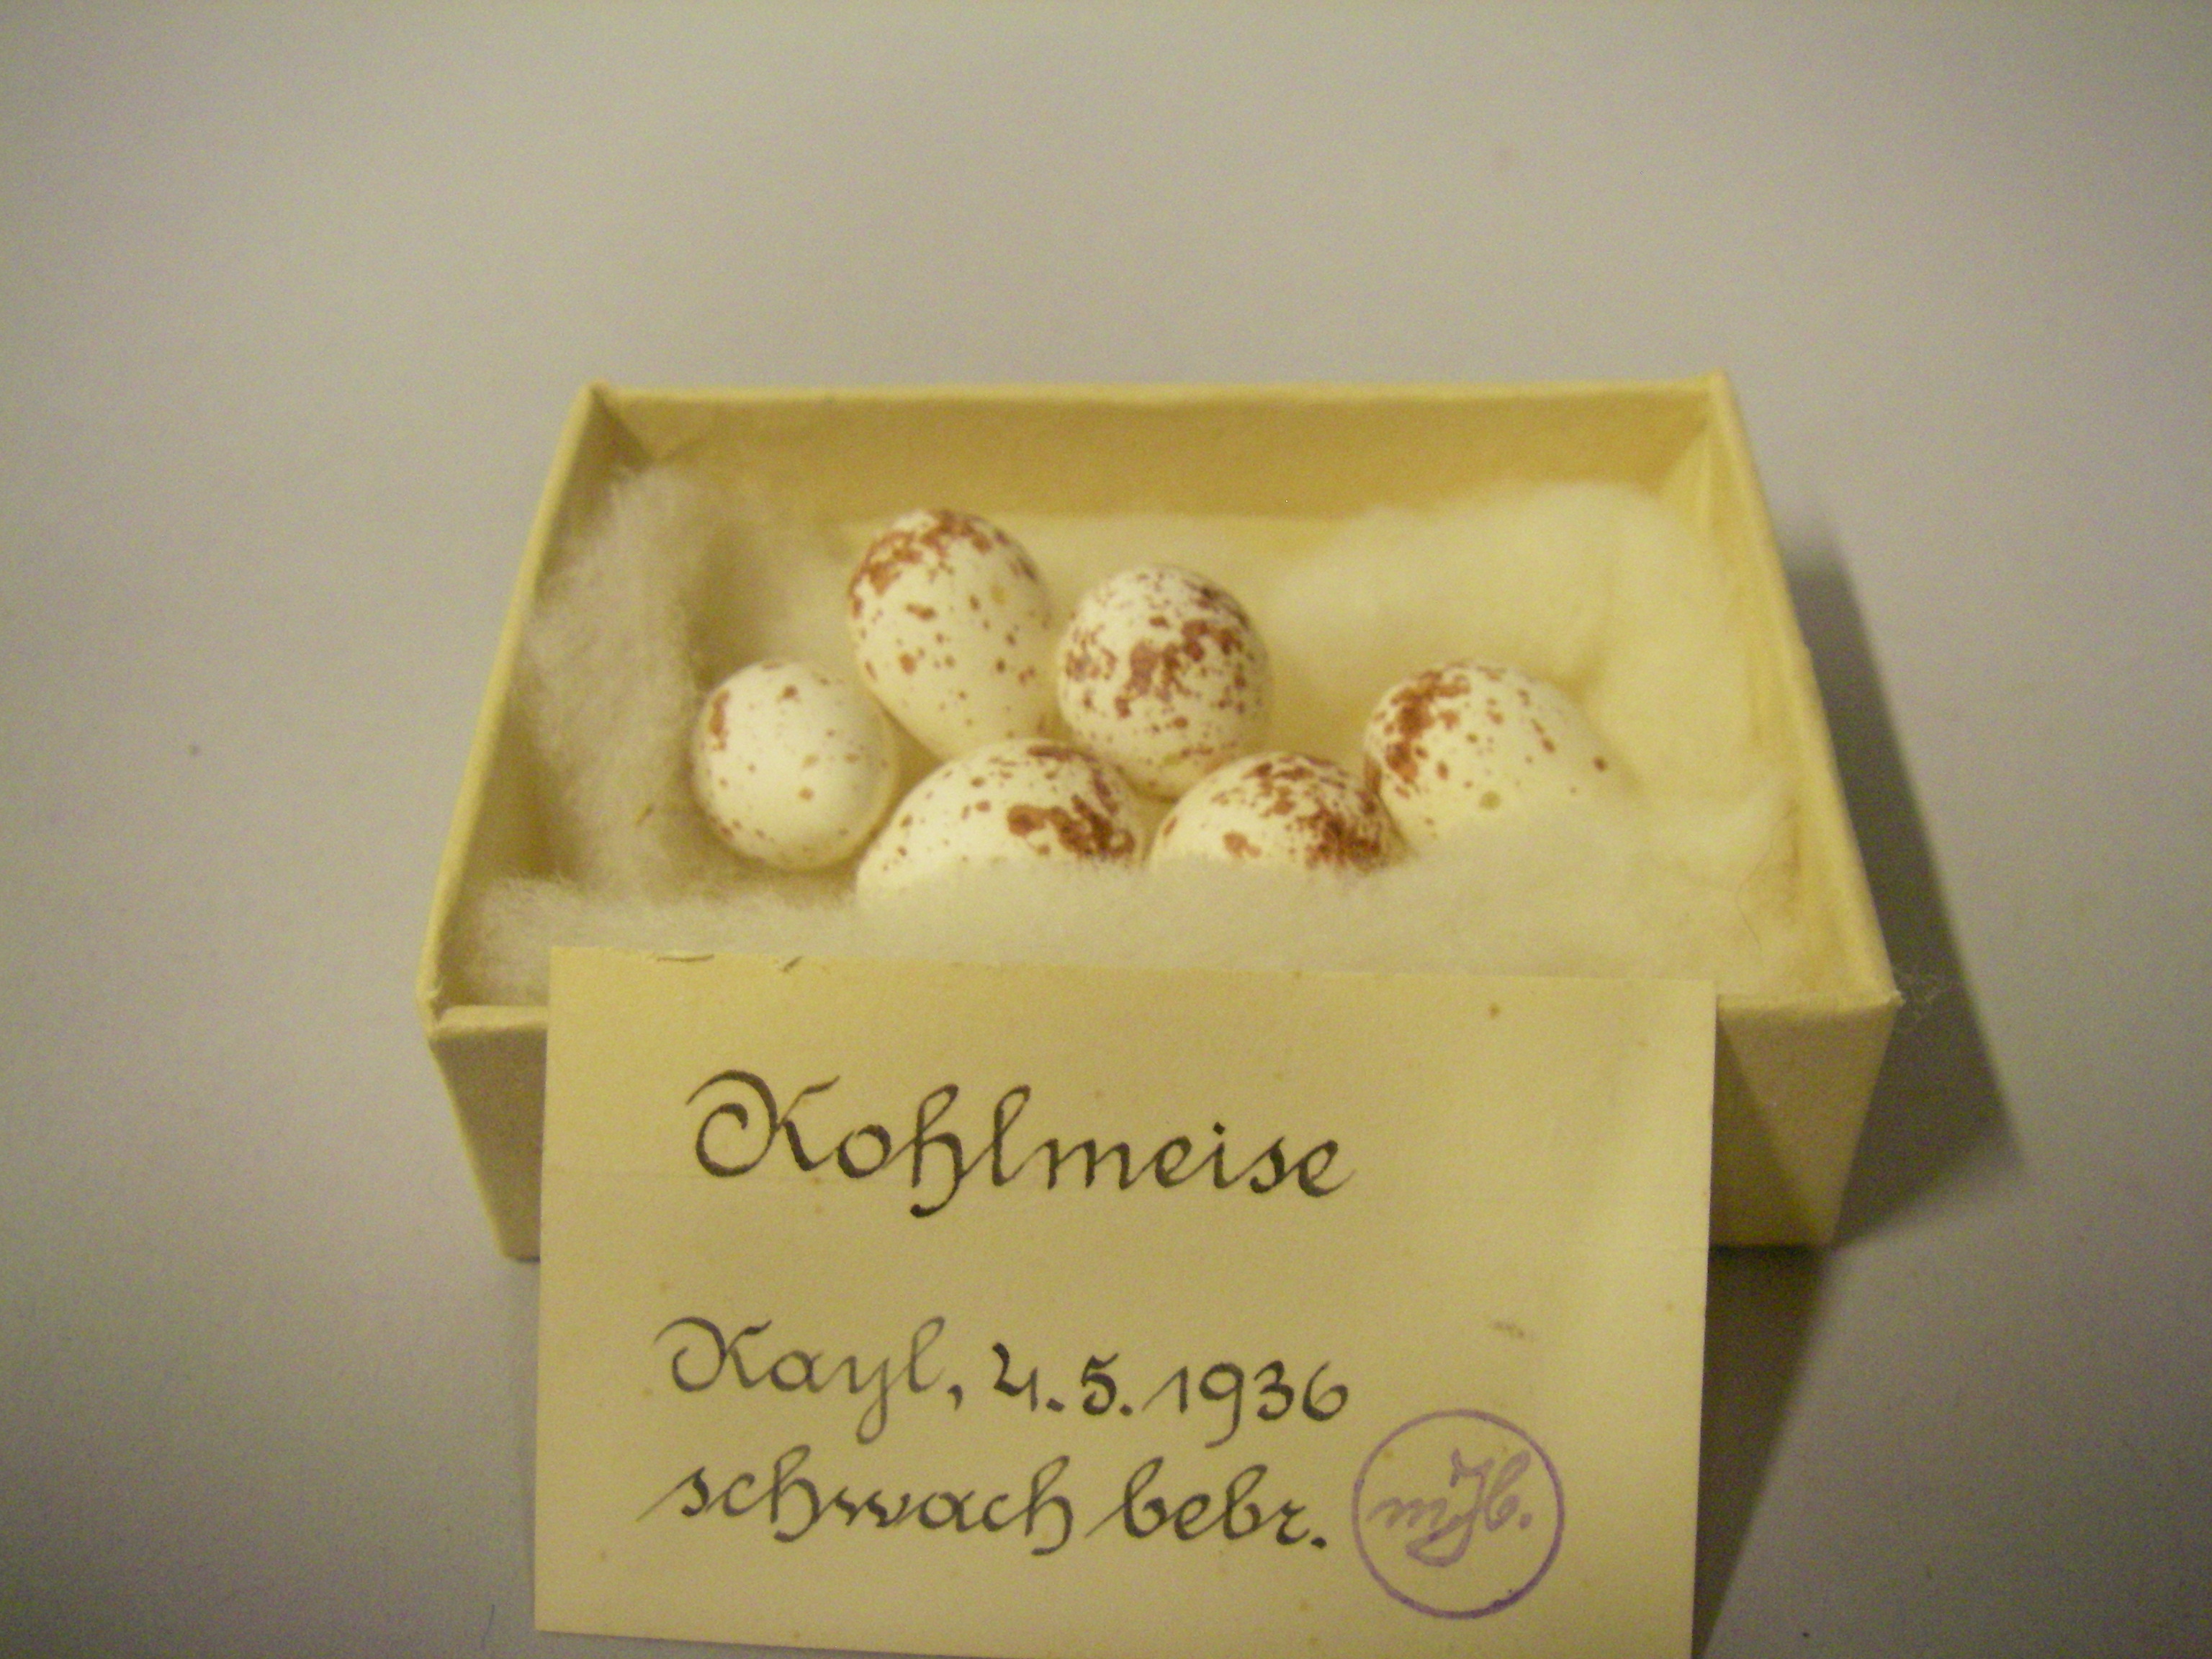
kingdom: Animalia
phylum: Chordata
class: Aves
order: Passeriformes
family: Paridae
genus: Parus
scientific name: Parus major
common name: Great tit
